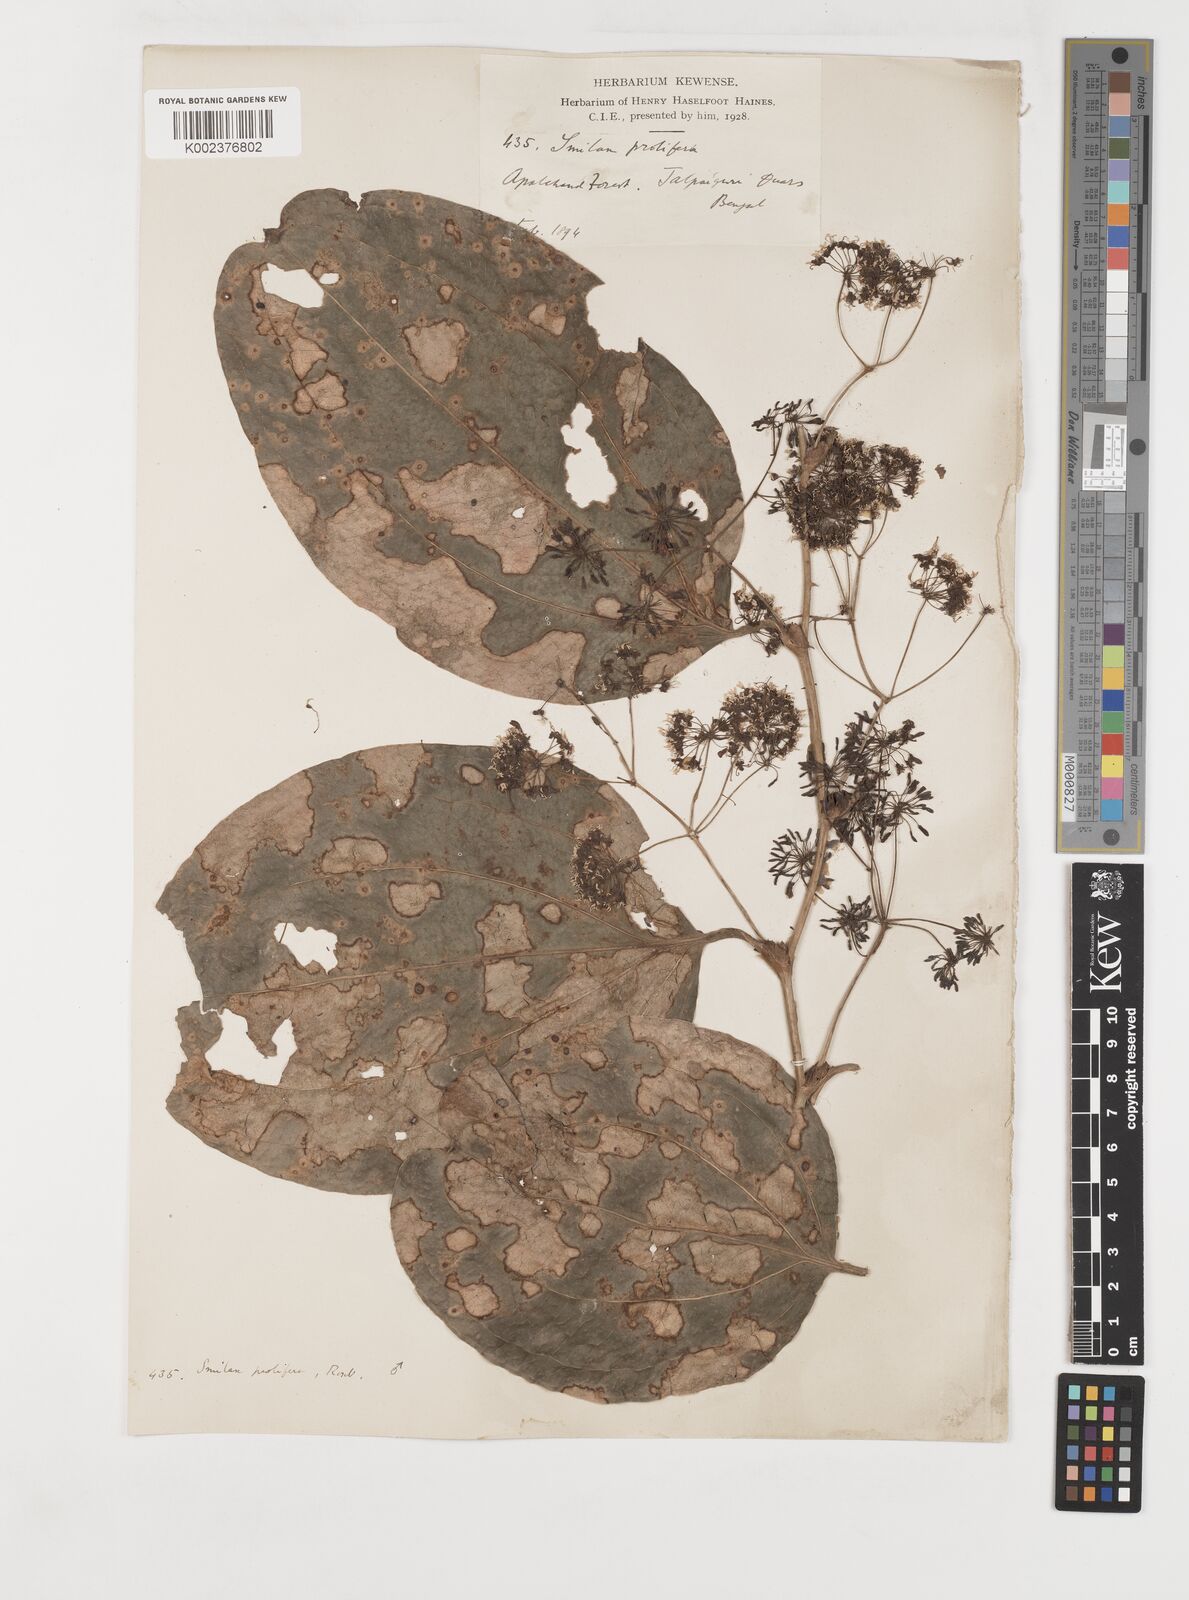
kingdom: Plantae
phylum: Tracheophyta
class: Liliopsida
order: Liliales
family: Smilacaceae
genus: Smilax
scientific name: Smilax prolifera
